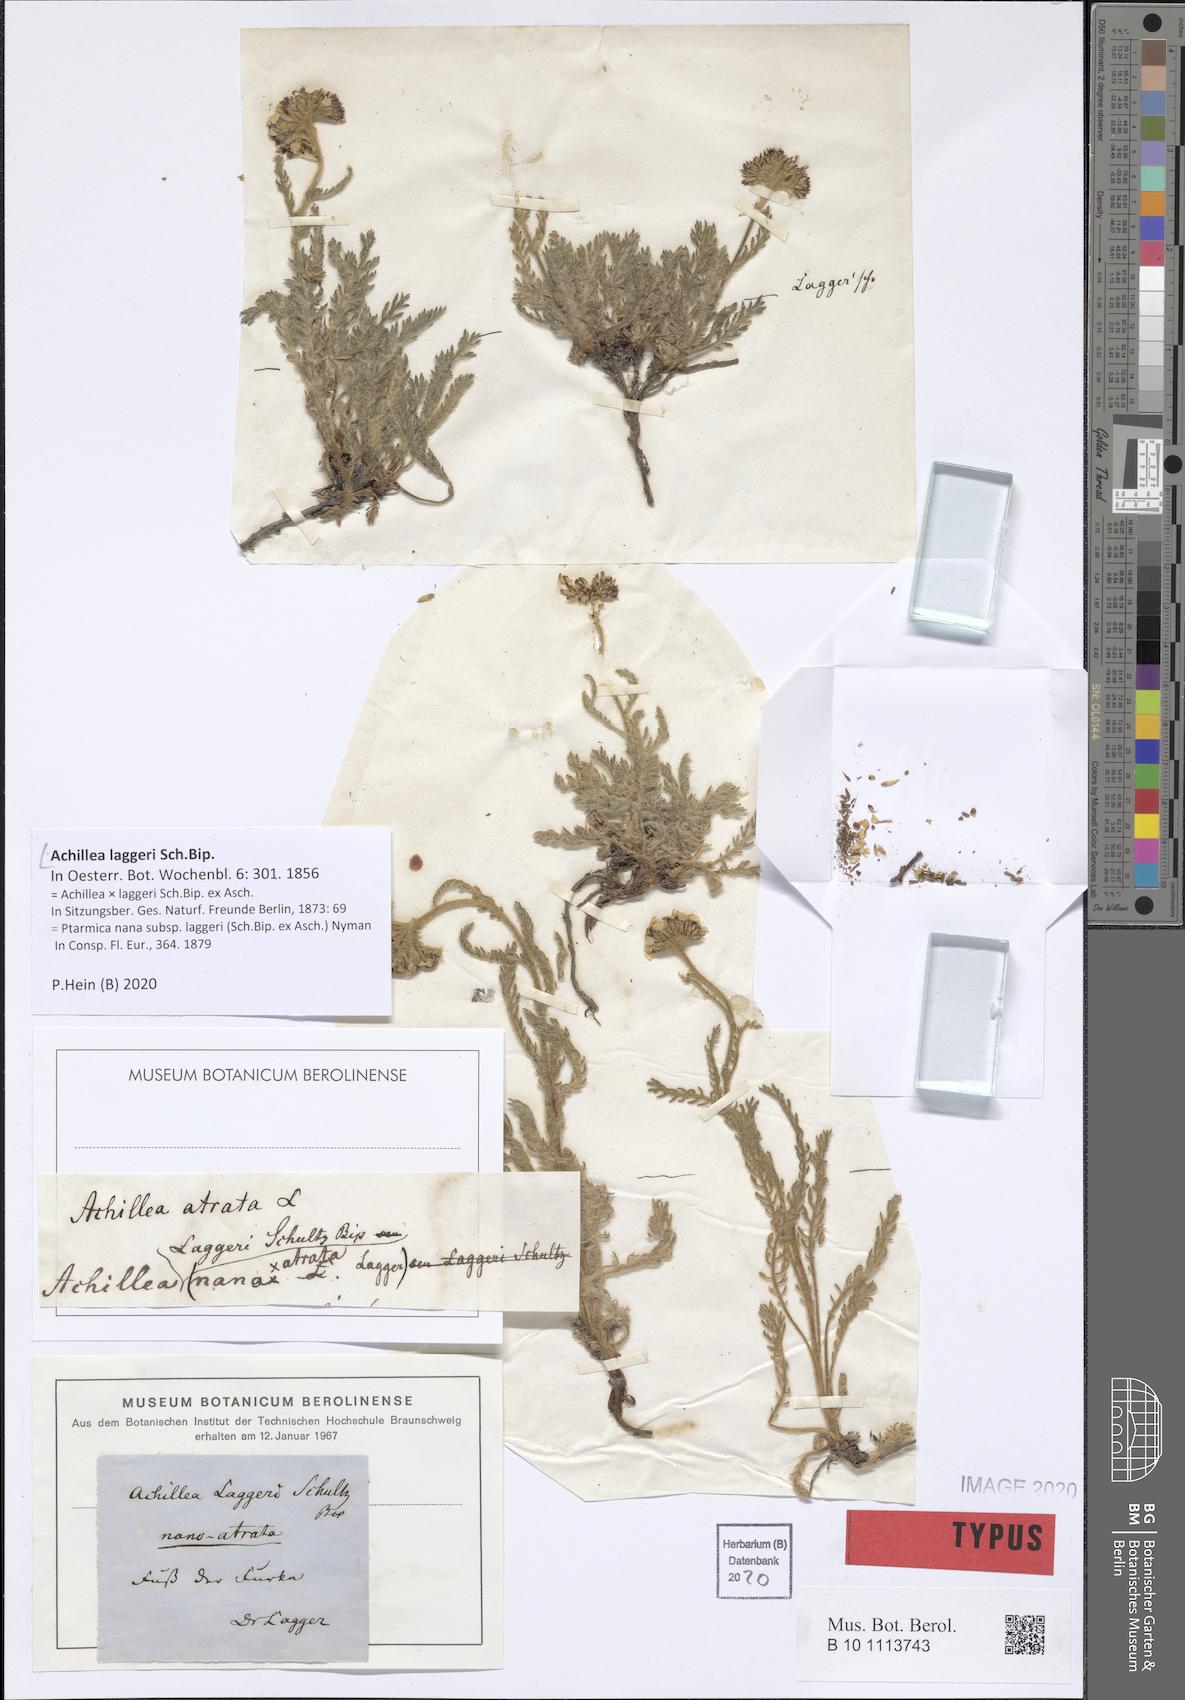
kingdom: Plantae
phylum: Tracheophyta
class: Magnoliopsida
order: Asterales
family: Asteraceae
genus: Achillea
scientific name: Achillea laggeri
